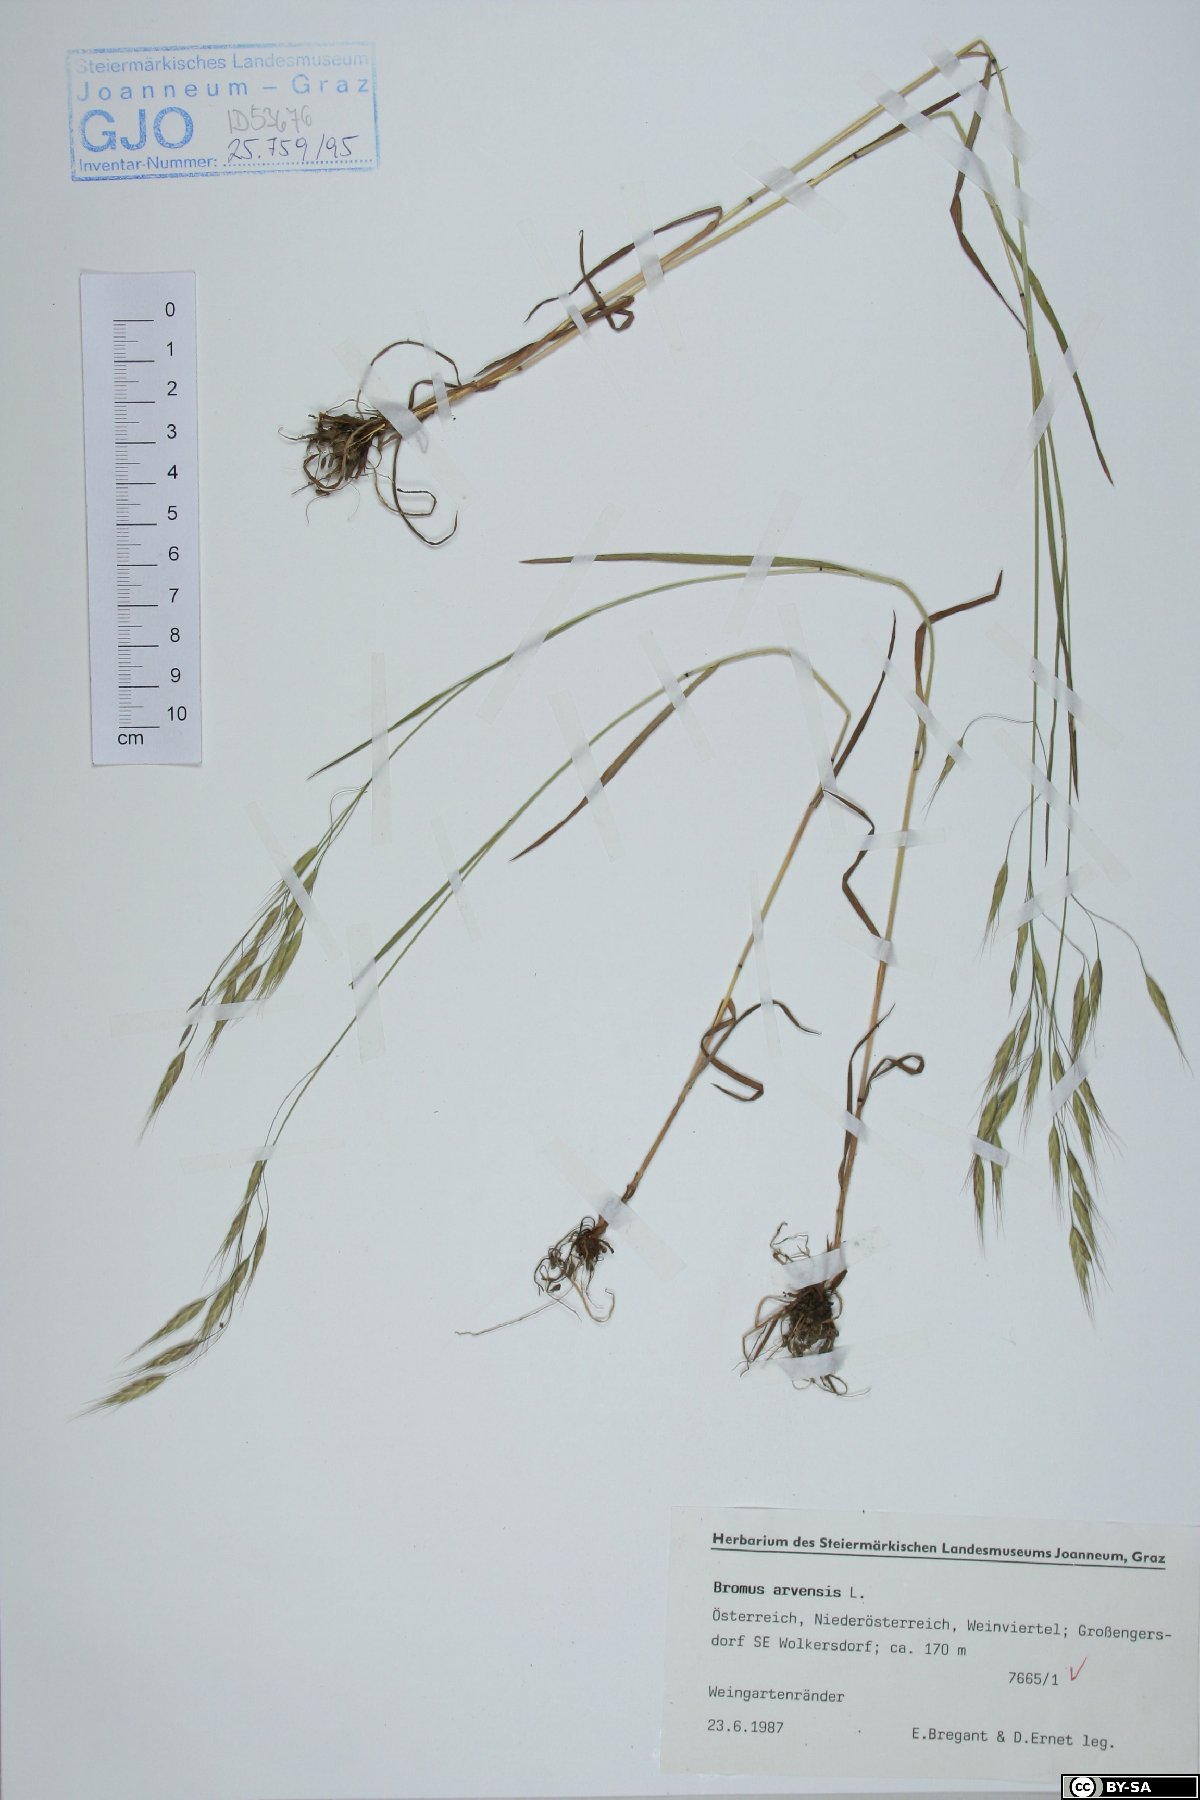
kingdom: Plantae
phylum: Tracheophyta
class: Liliopsida
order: Poales
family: Poaceae
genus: Bromus
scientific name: Bromus arvensis
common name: Field brome
